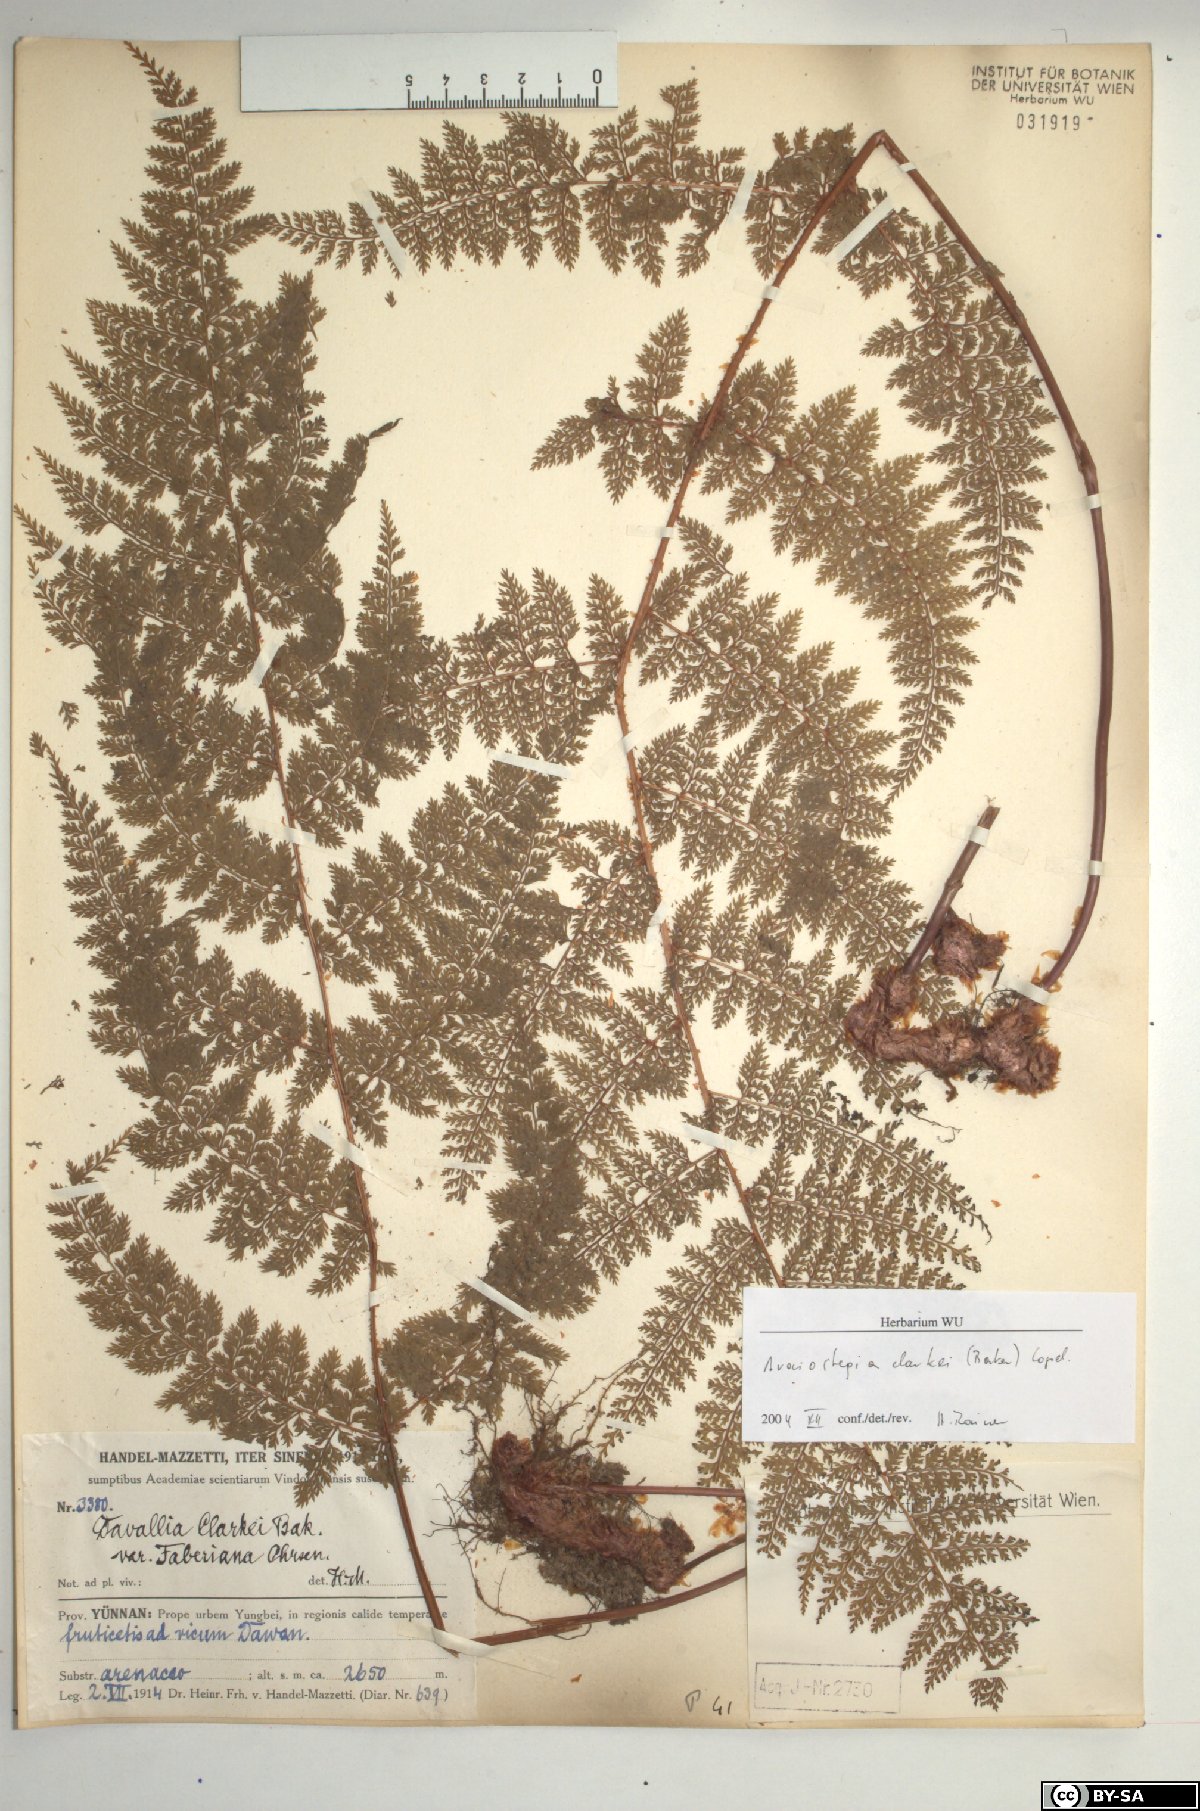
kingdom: Plantae
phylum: Tracheophyta
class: Polypodiopsida
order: Polypodiales
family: Davalliaceae
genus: Davallia
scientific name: Davallia perdurans
